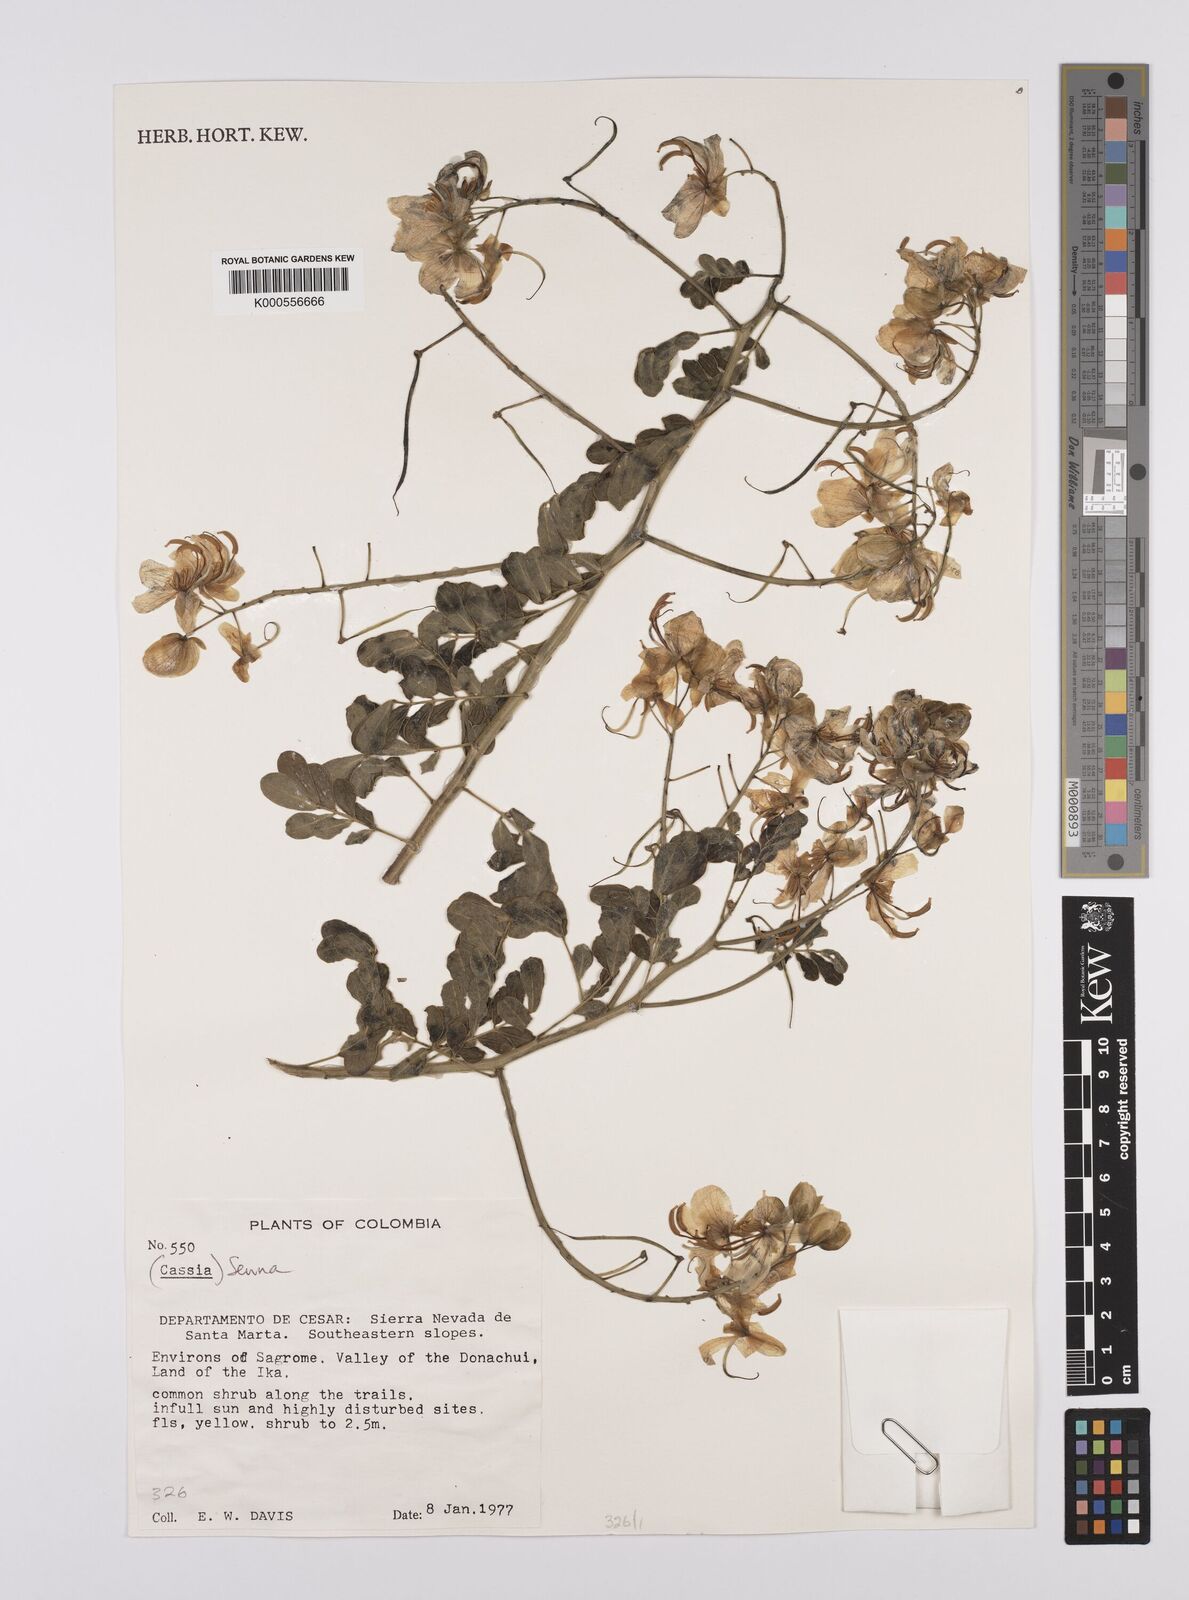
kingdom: Plantae
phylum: Tracheophyta
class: Magnoliopsida
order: Fabales
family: Fabaceae
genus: Senna
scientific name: Senna
